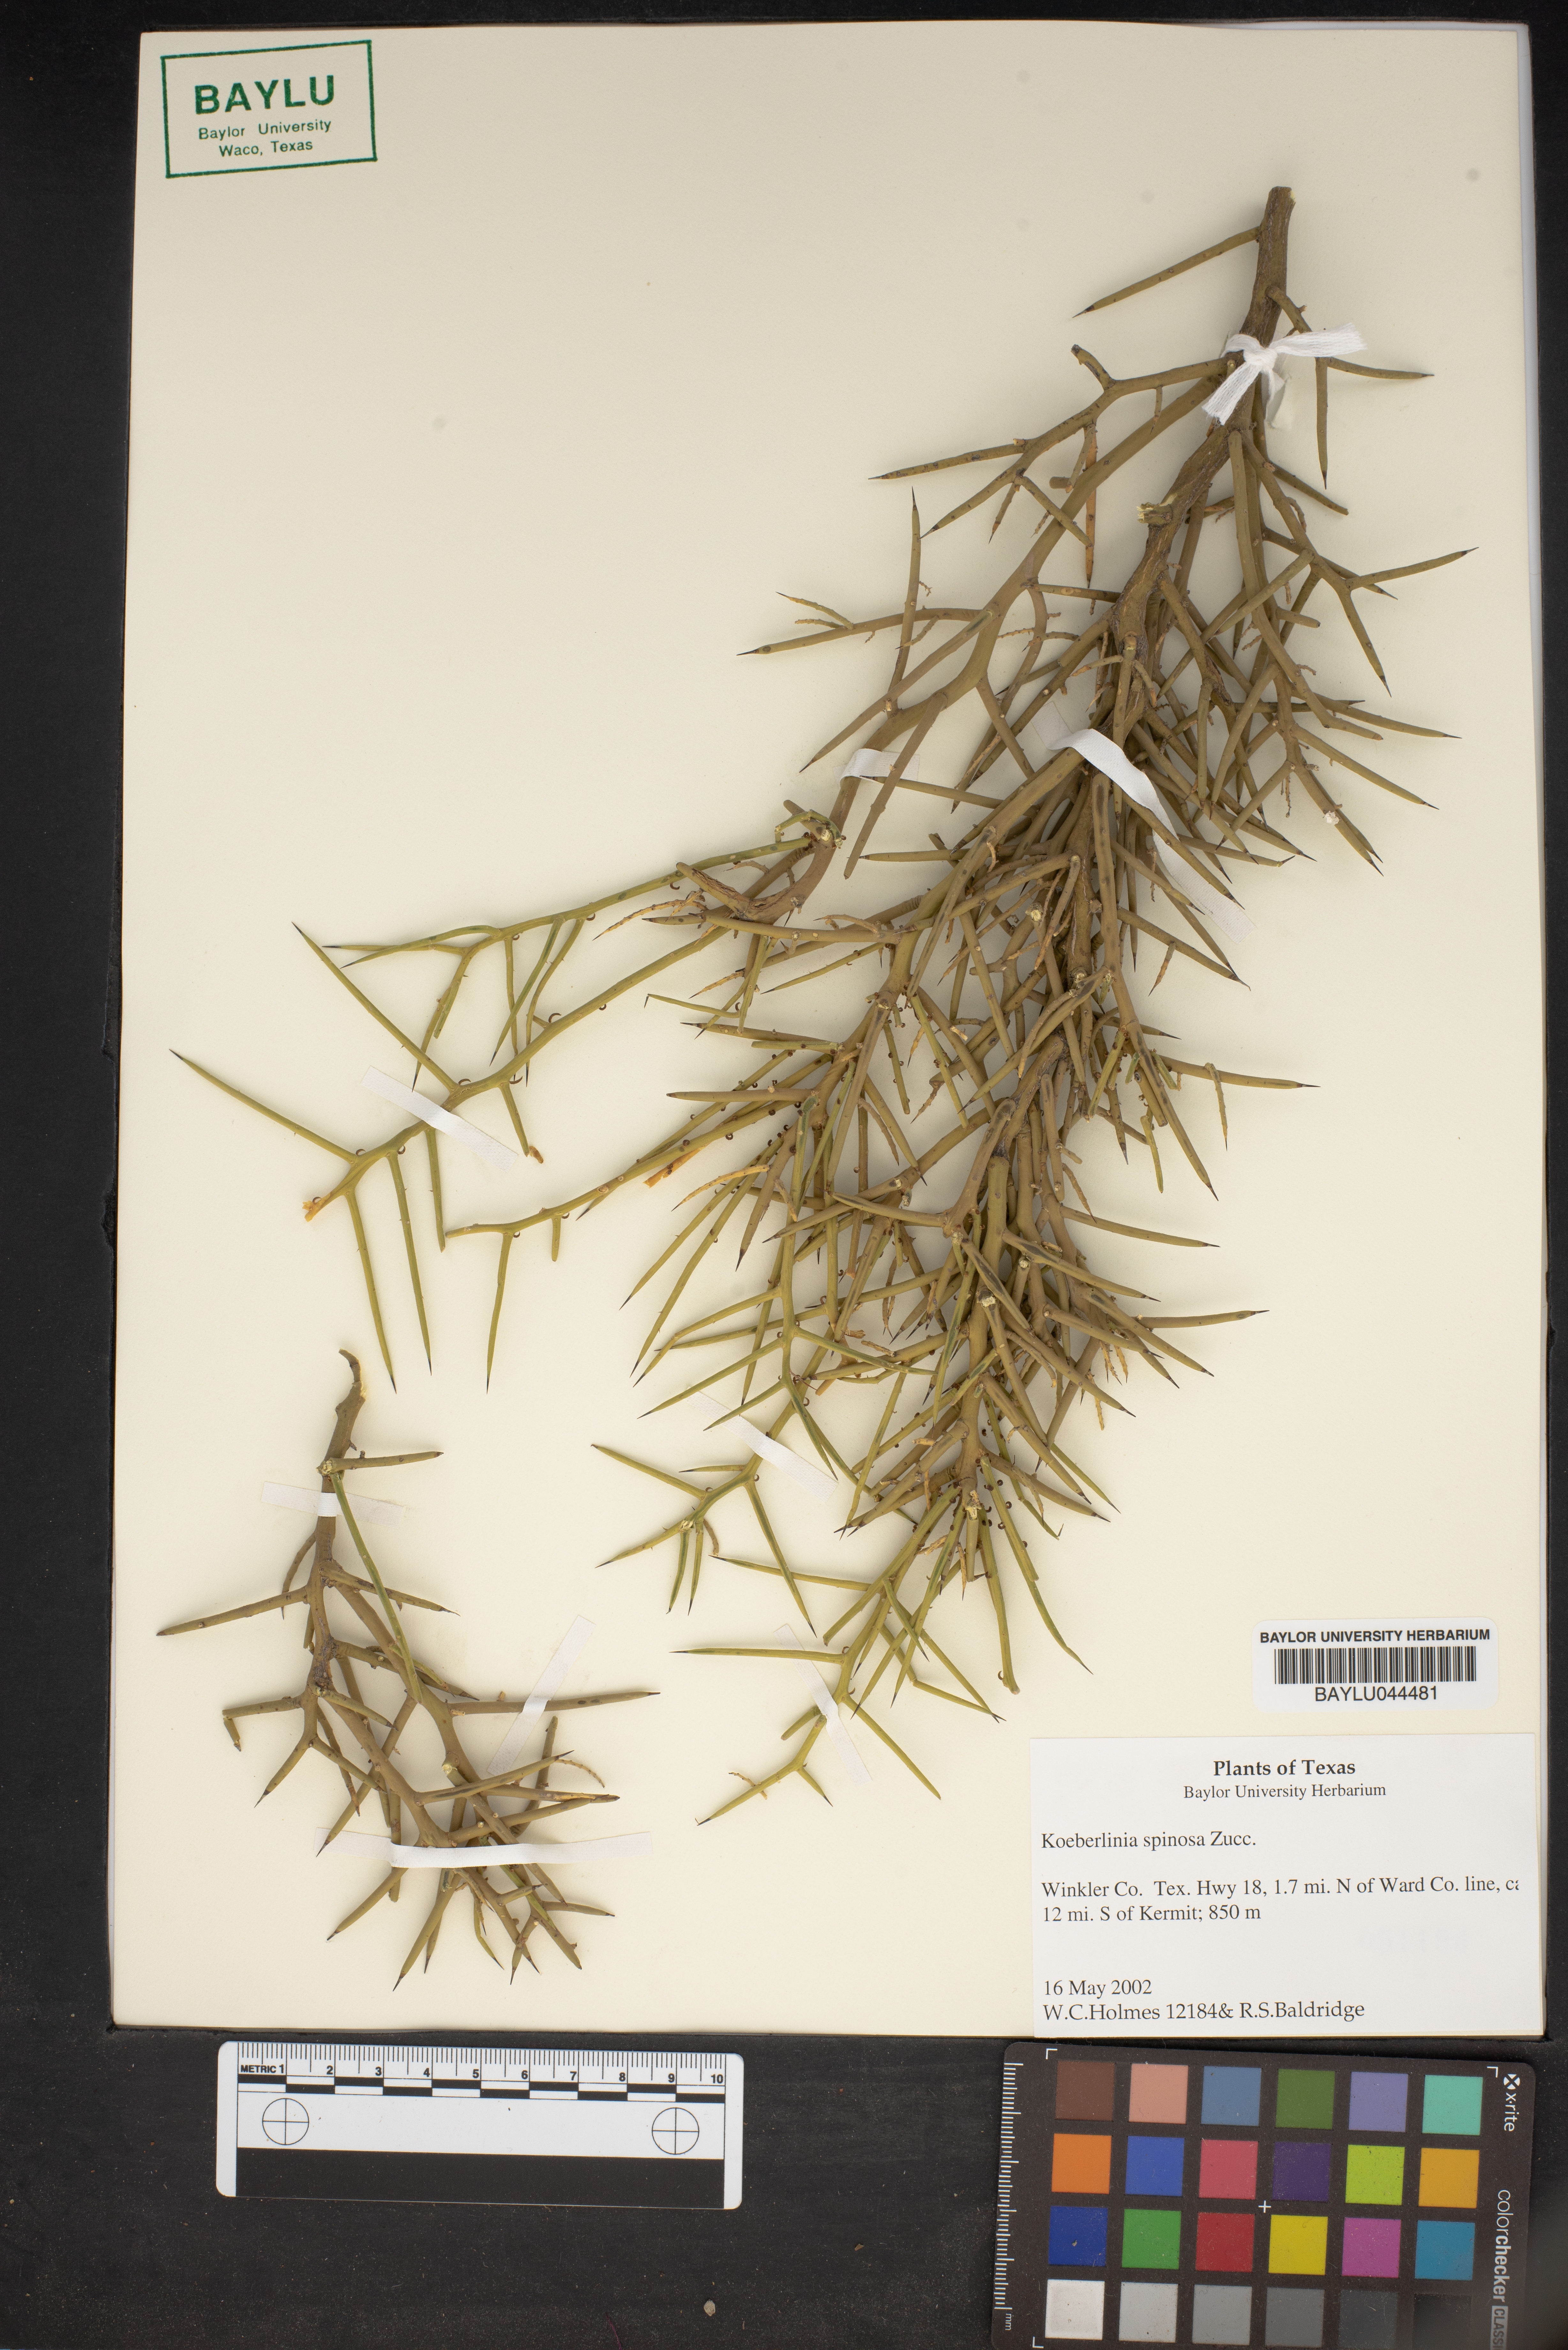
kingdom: Plantae
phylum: Tracheophyta
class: Magnoliopsida
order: Brassicales
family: Koeberliniaceae
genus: Koeberlinia
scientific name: Koeberlinia spinosa
